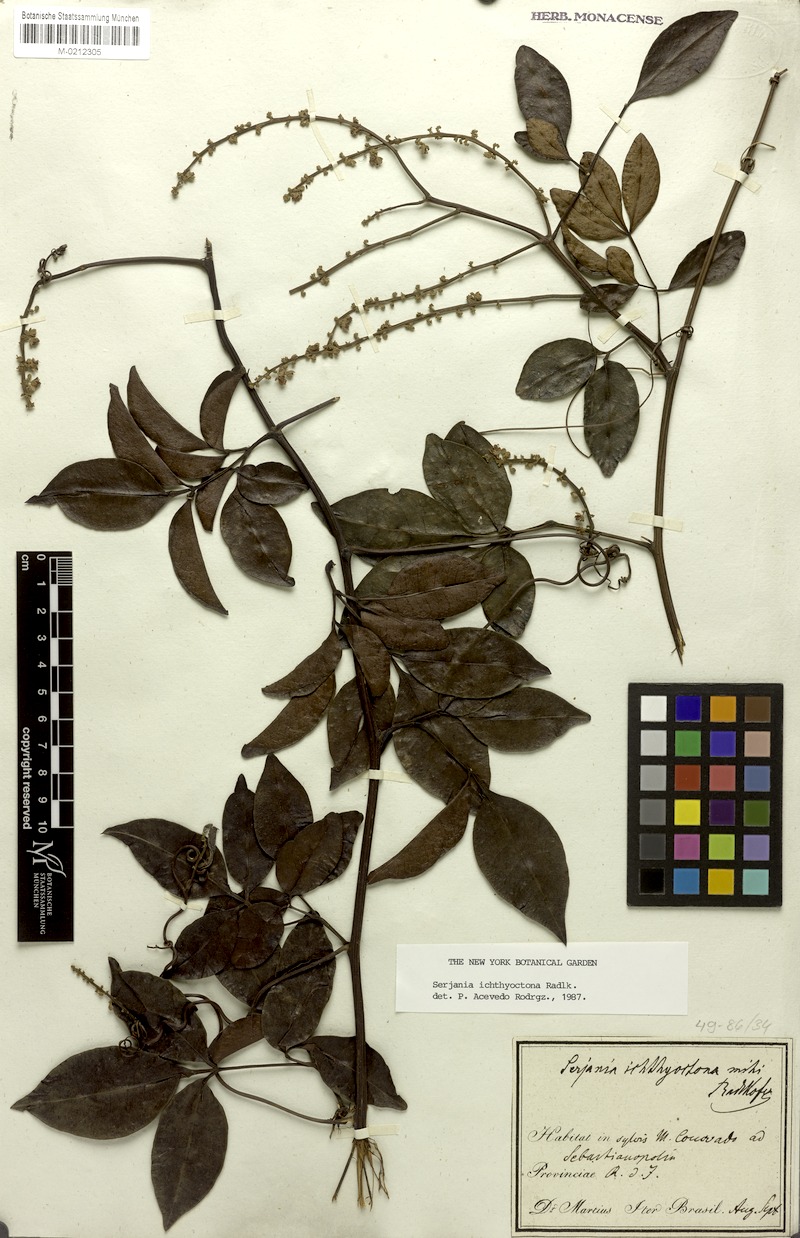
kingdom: Plantae
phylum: Tracheophyta
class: Magnoliopsida
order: Sapindales
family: Sapindaceae
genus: Serjania
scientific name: Serjania ichthyctona
